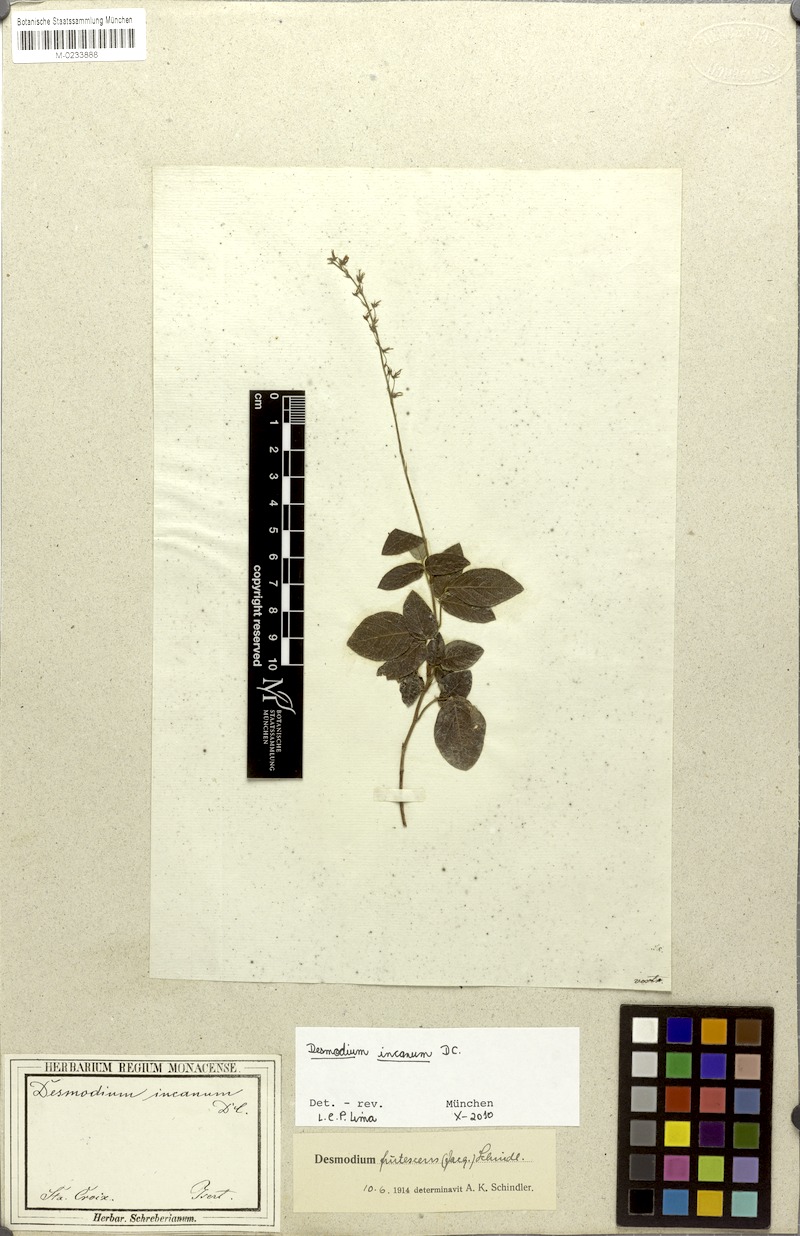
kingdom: Plantae
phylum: Tracheophyta
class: Magnoliopsida
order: Fabales
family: Fabaceae
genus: Desmodium
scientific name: Desmodium incanum
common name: Tickclover
